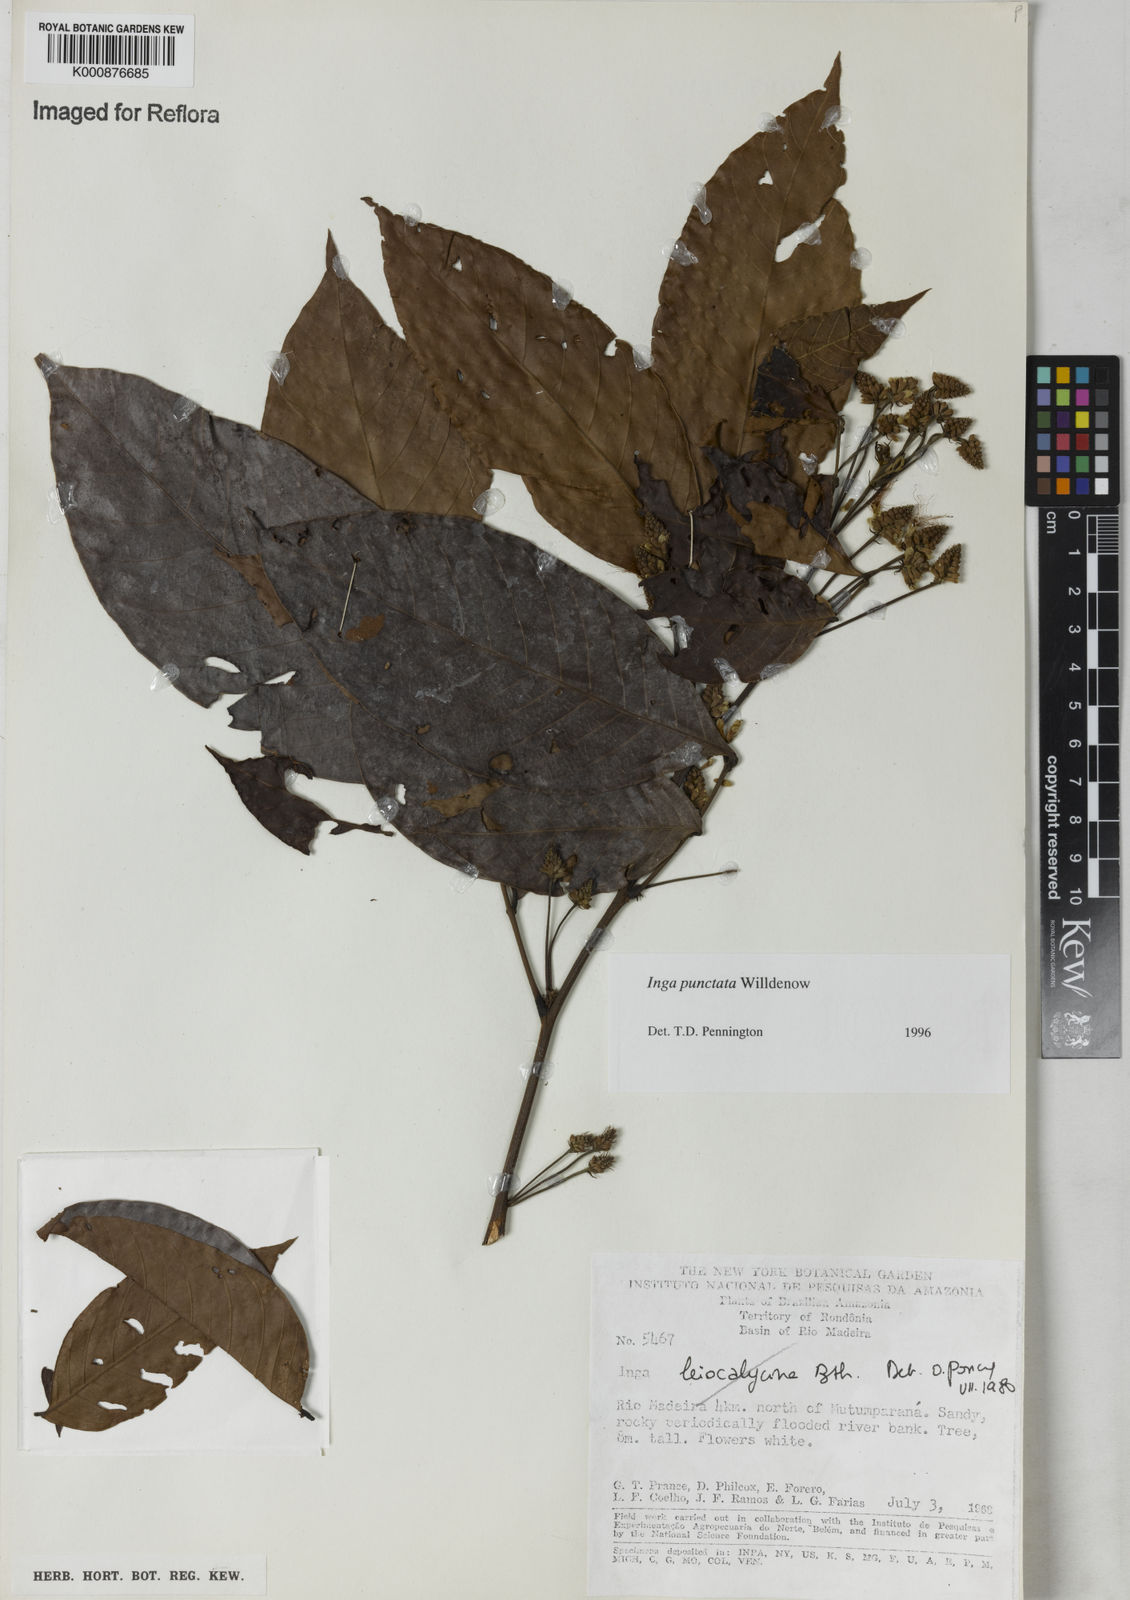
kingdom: Plantae
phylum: Tracheophyta
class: Magnoliopsida
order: Fabales
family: Fabaceae
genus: Inga
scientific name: Inga punctata
